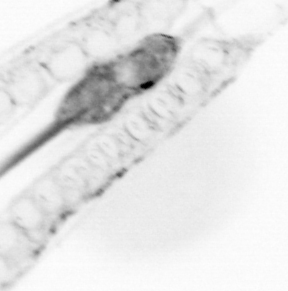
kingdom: Animalia
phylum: Chaetognatha
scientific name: Chaetognatha
